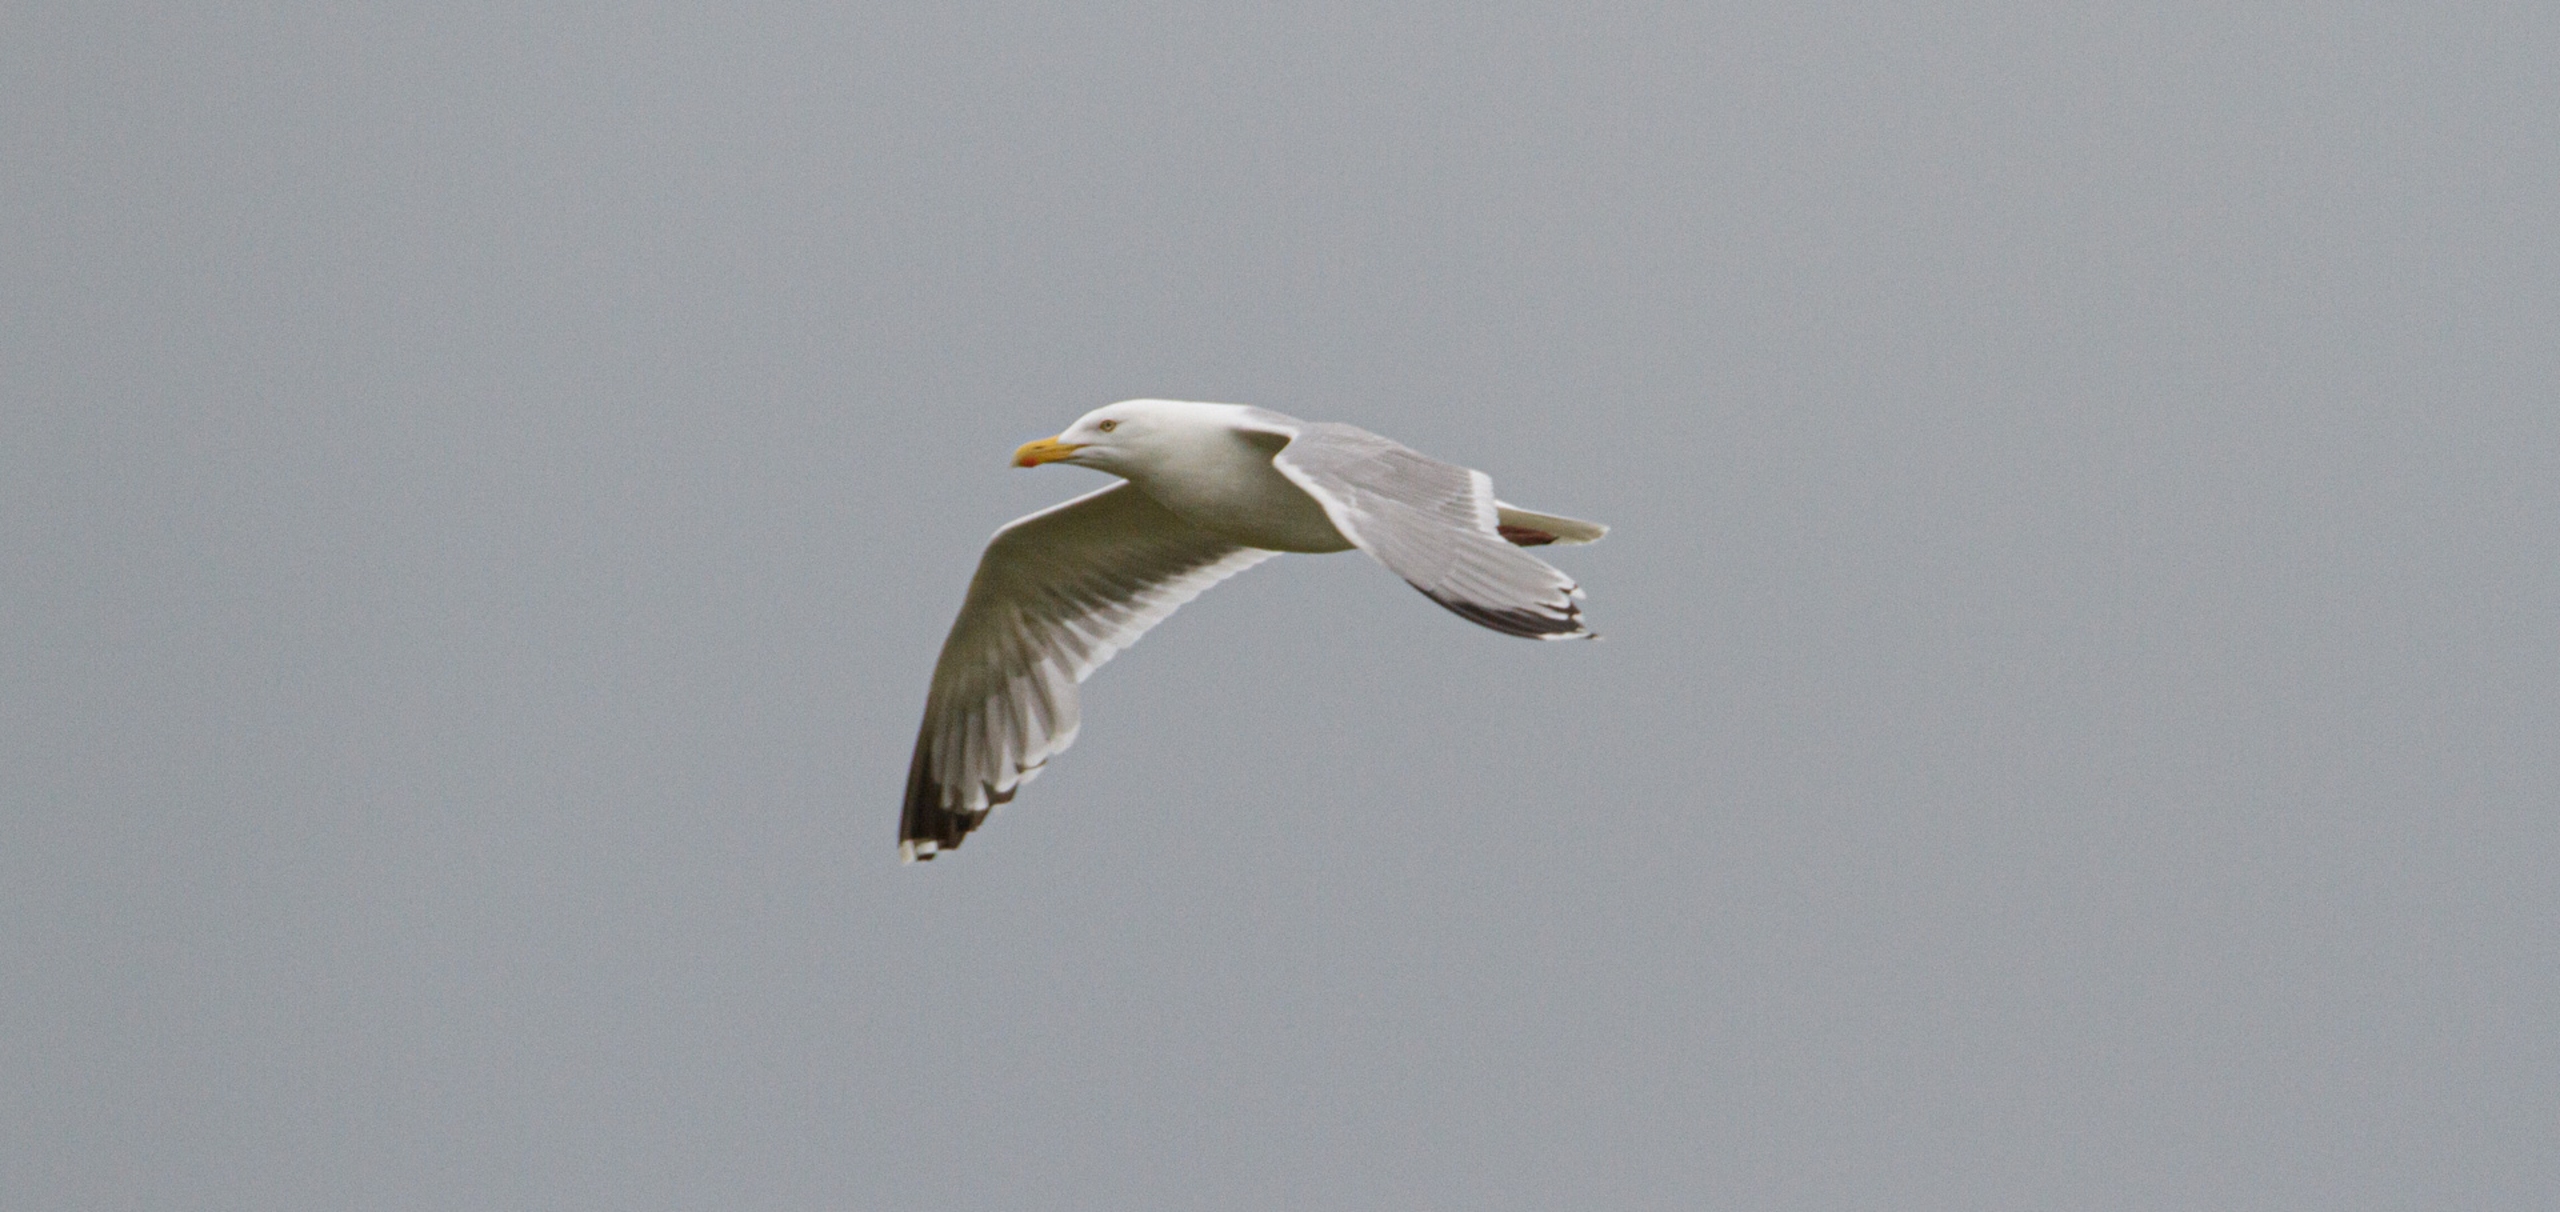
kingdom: Animalia
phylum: Chordata
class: Aves
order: Charadriiformes
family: Laridae
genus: Larus
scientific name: Larus argentatus
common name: Sølvmåge
